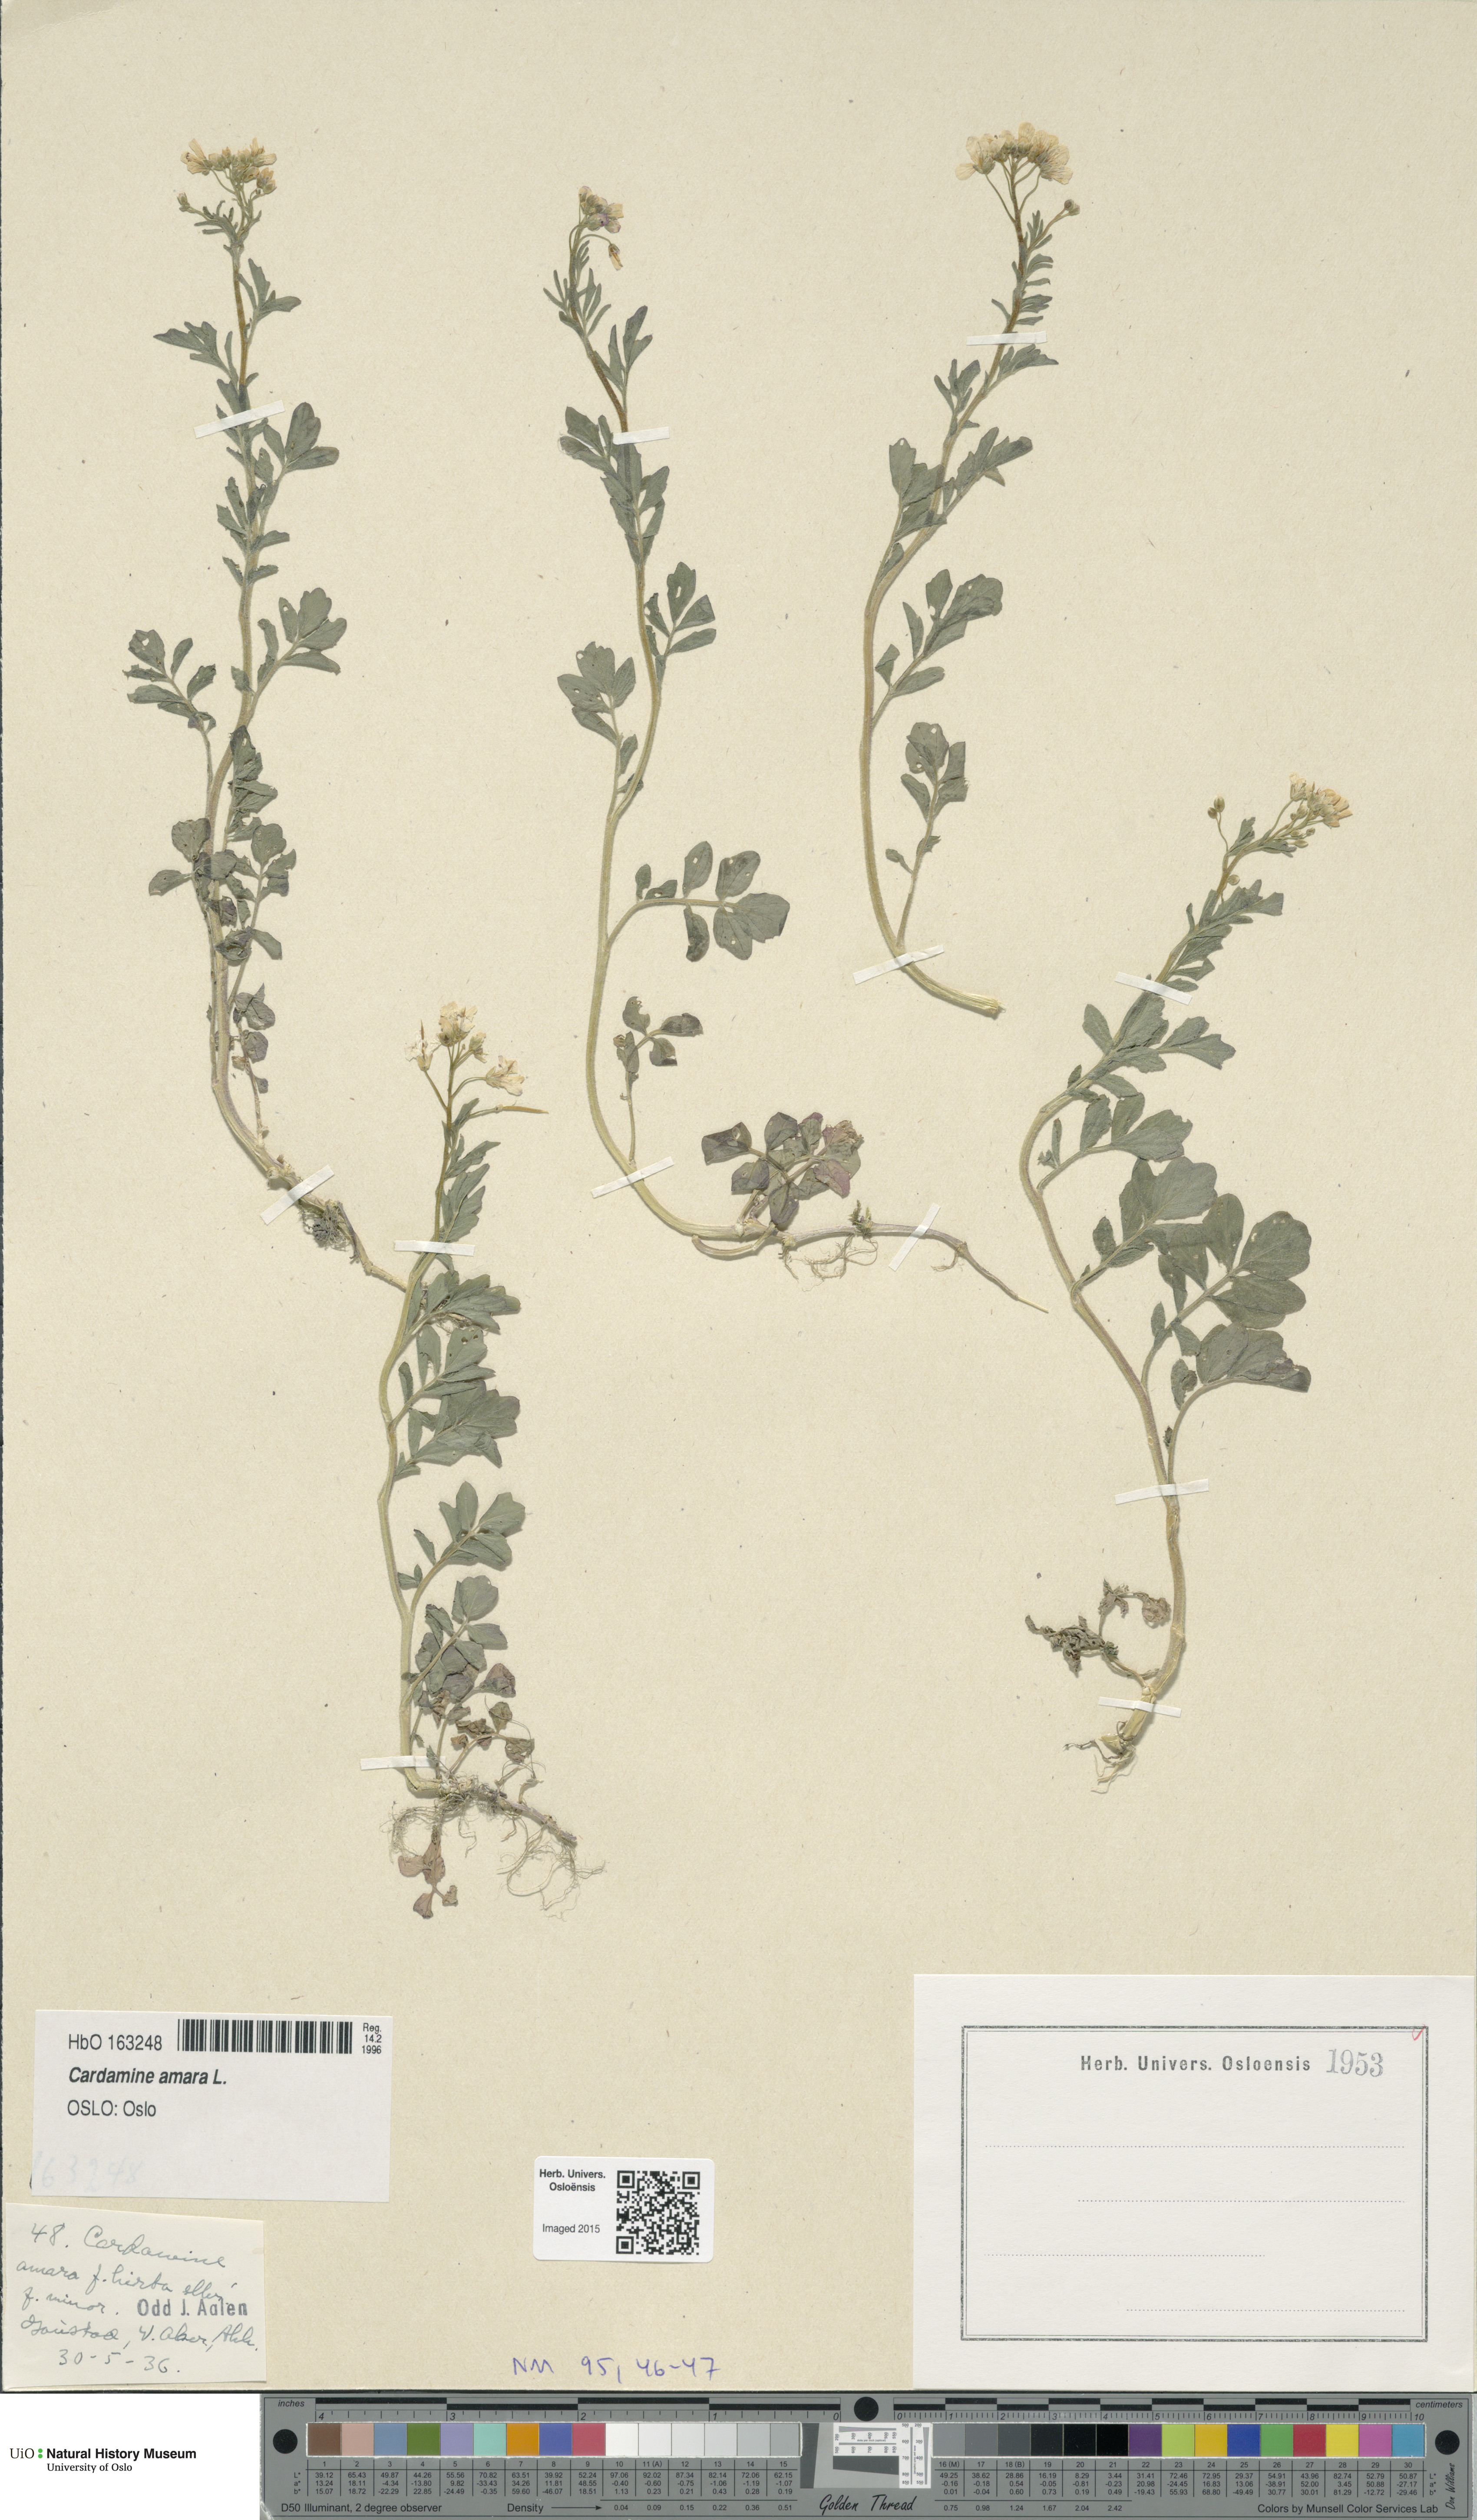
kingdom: Plantae
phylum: Tracheophyta
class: Magnoliopsida
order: Brassicales
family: Brassicaceae
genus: Cardamine
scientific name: Cardamine amara
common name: Large bitter-cress
